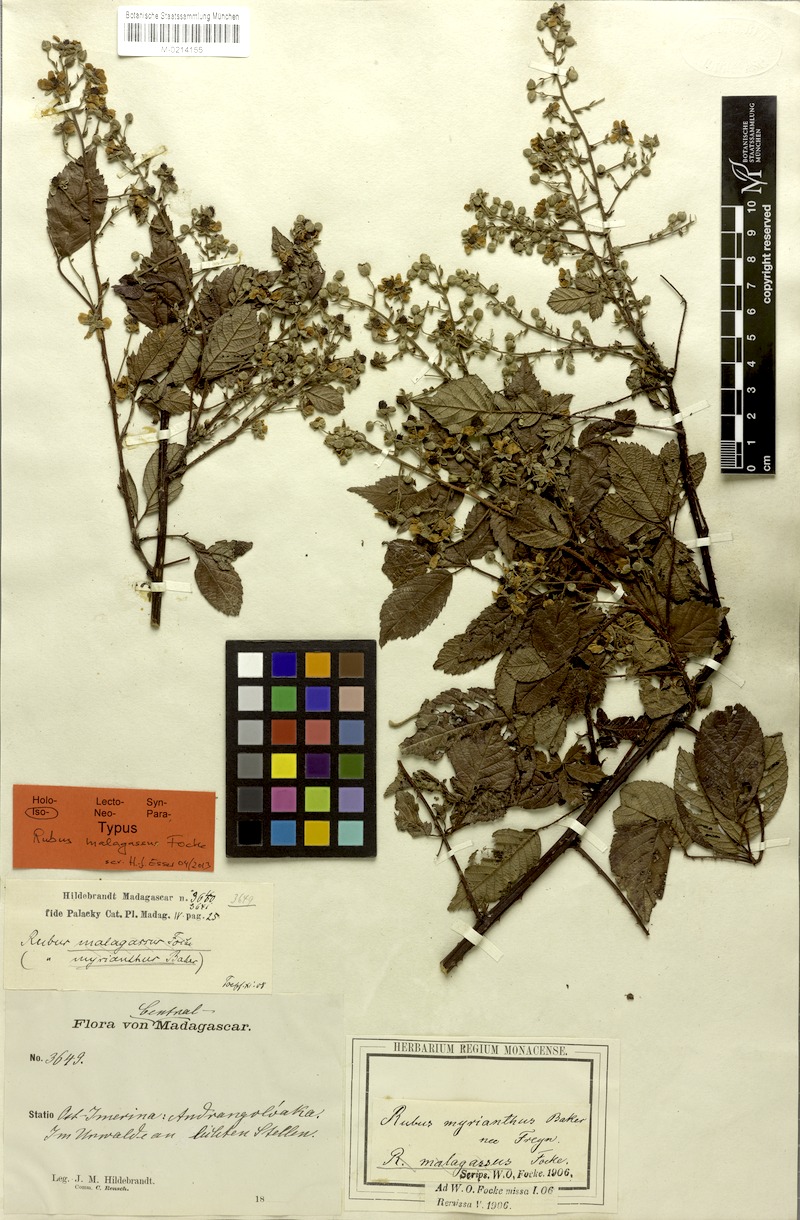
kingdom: Plantae
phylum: Tracheophyta
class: Magnoliopsida
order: Rosales
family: Rosaceae
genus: Rubus
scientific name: Rubus malagassus
